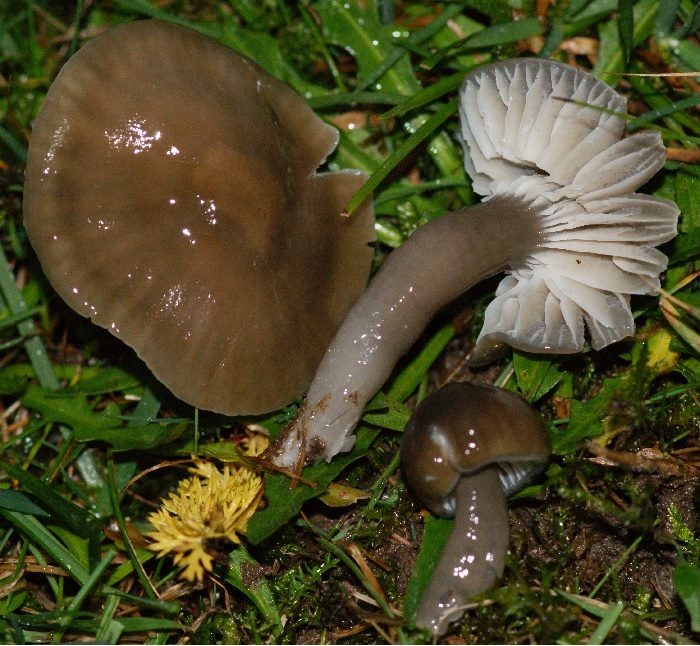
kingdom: Fungi
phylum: Basidiomycota
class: Agaricomycetes
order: Agaricales
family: Hygrophoraceae
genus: Gliophorus
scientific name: Gliophorus irrigatus
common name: slimet vokshat
